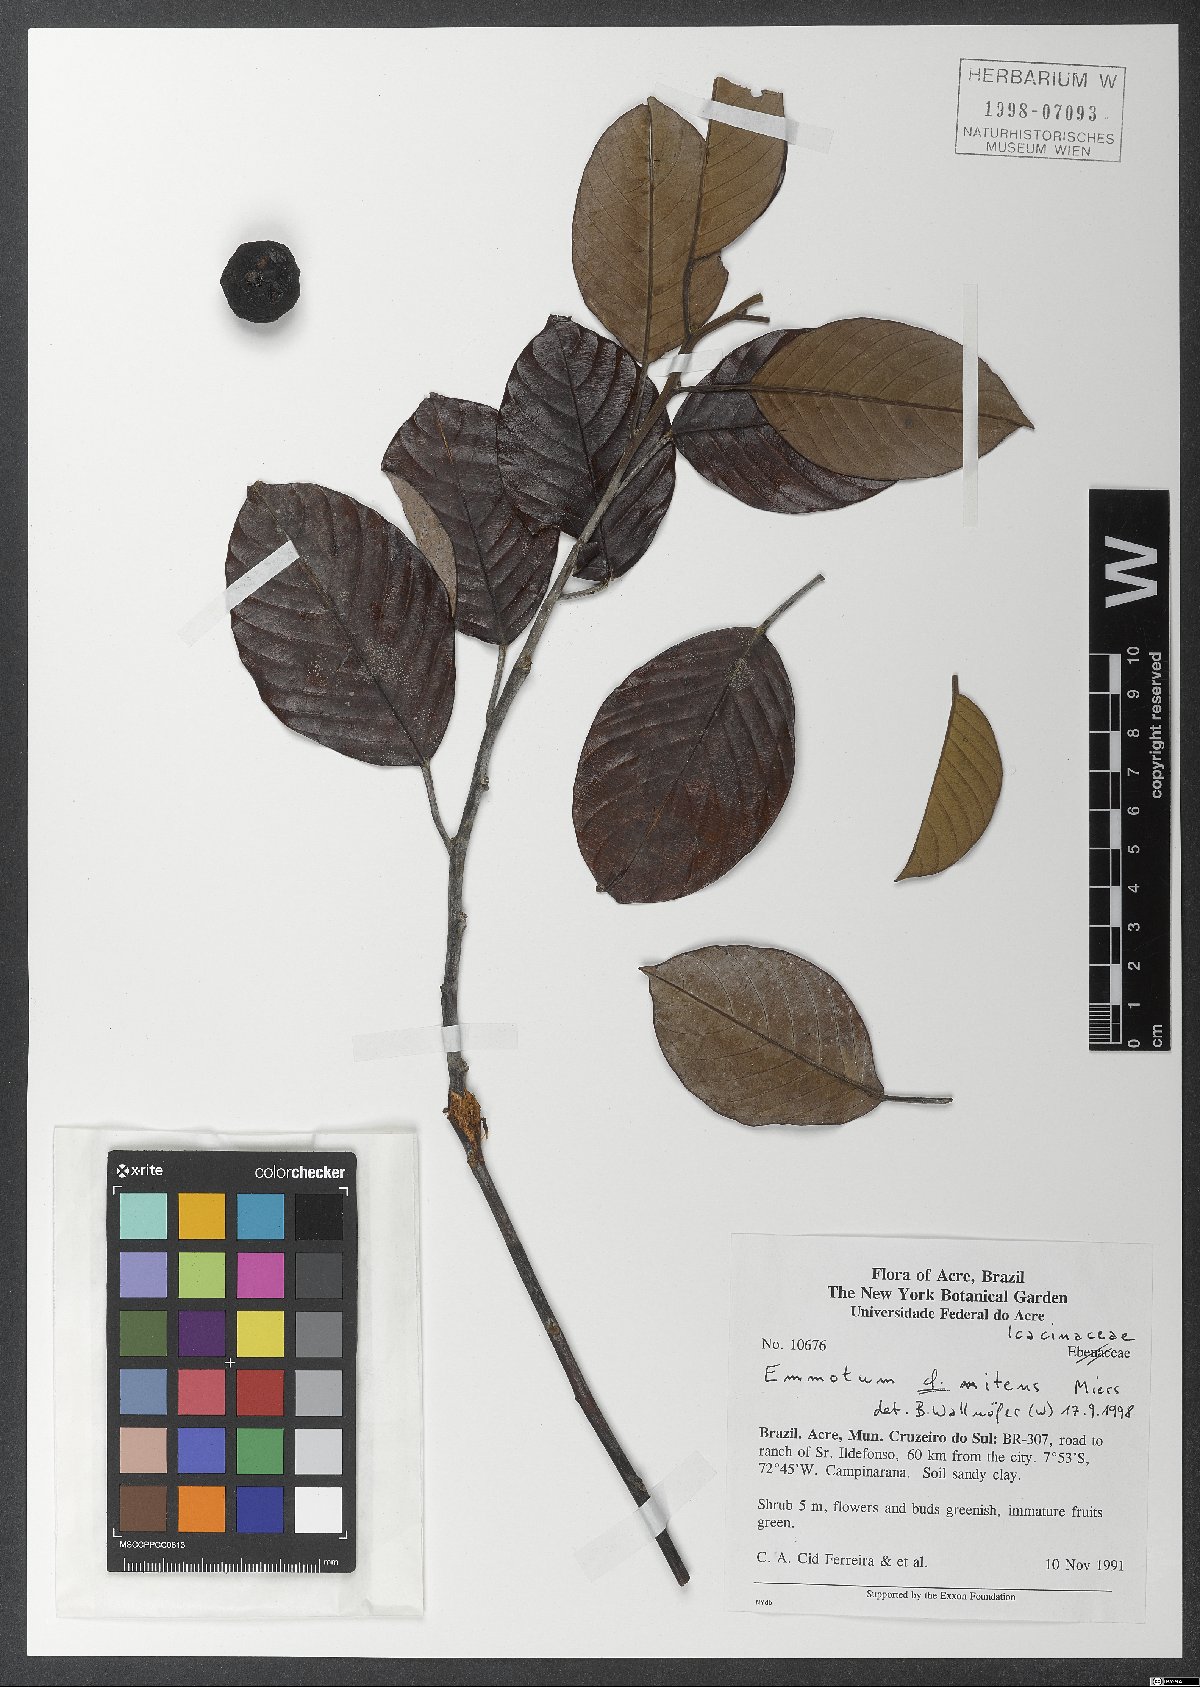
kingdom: Plantae
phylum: Tracheophyta
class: Magnoliopsida
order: Metteniusales
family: Metteniusaceae
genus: Emmotum
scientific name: Emmotum nitens
